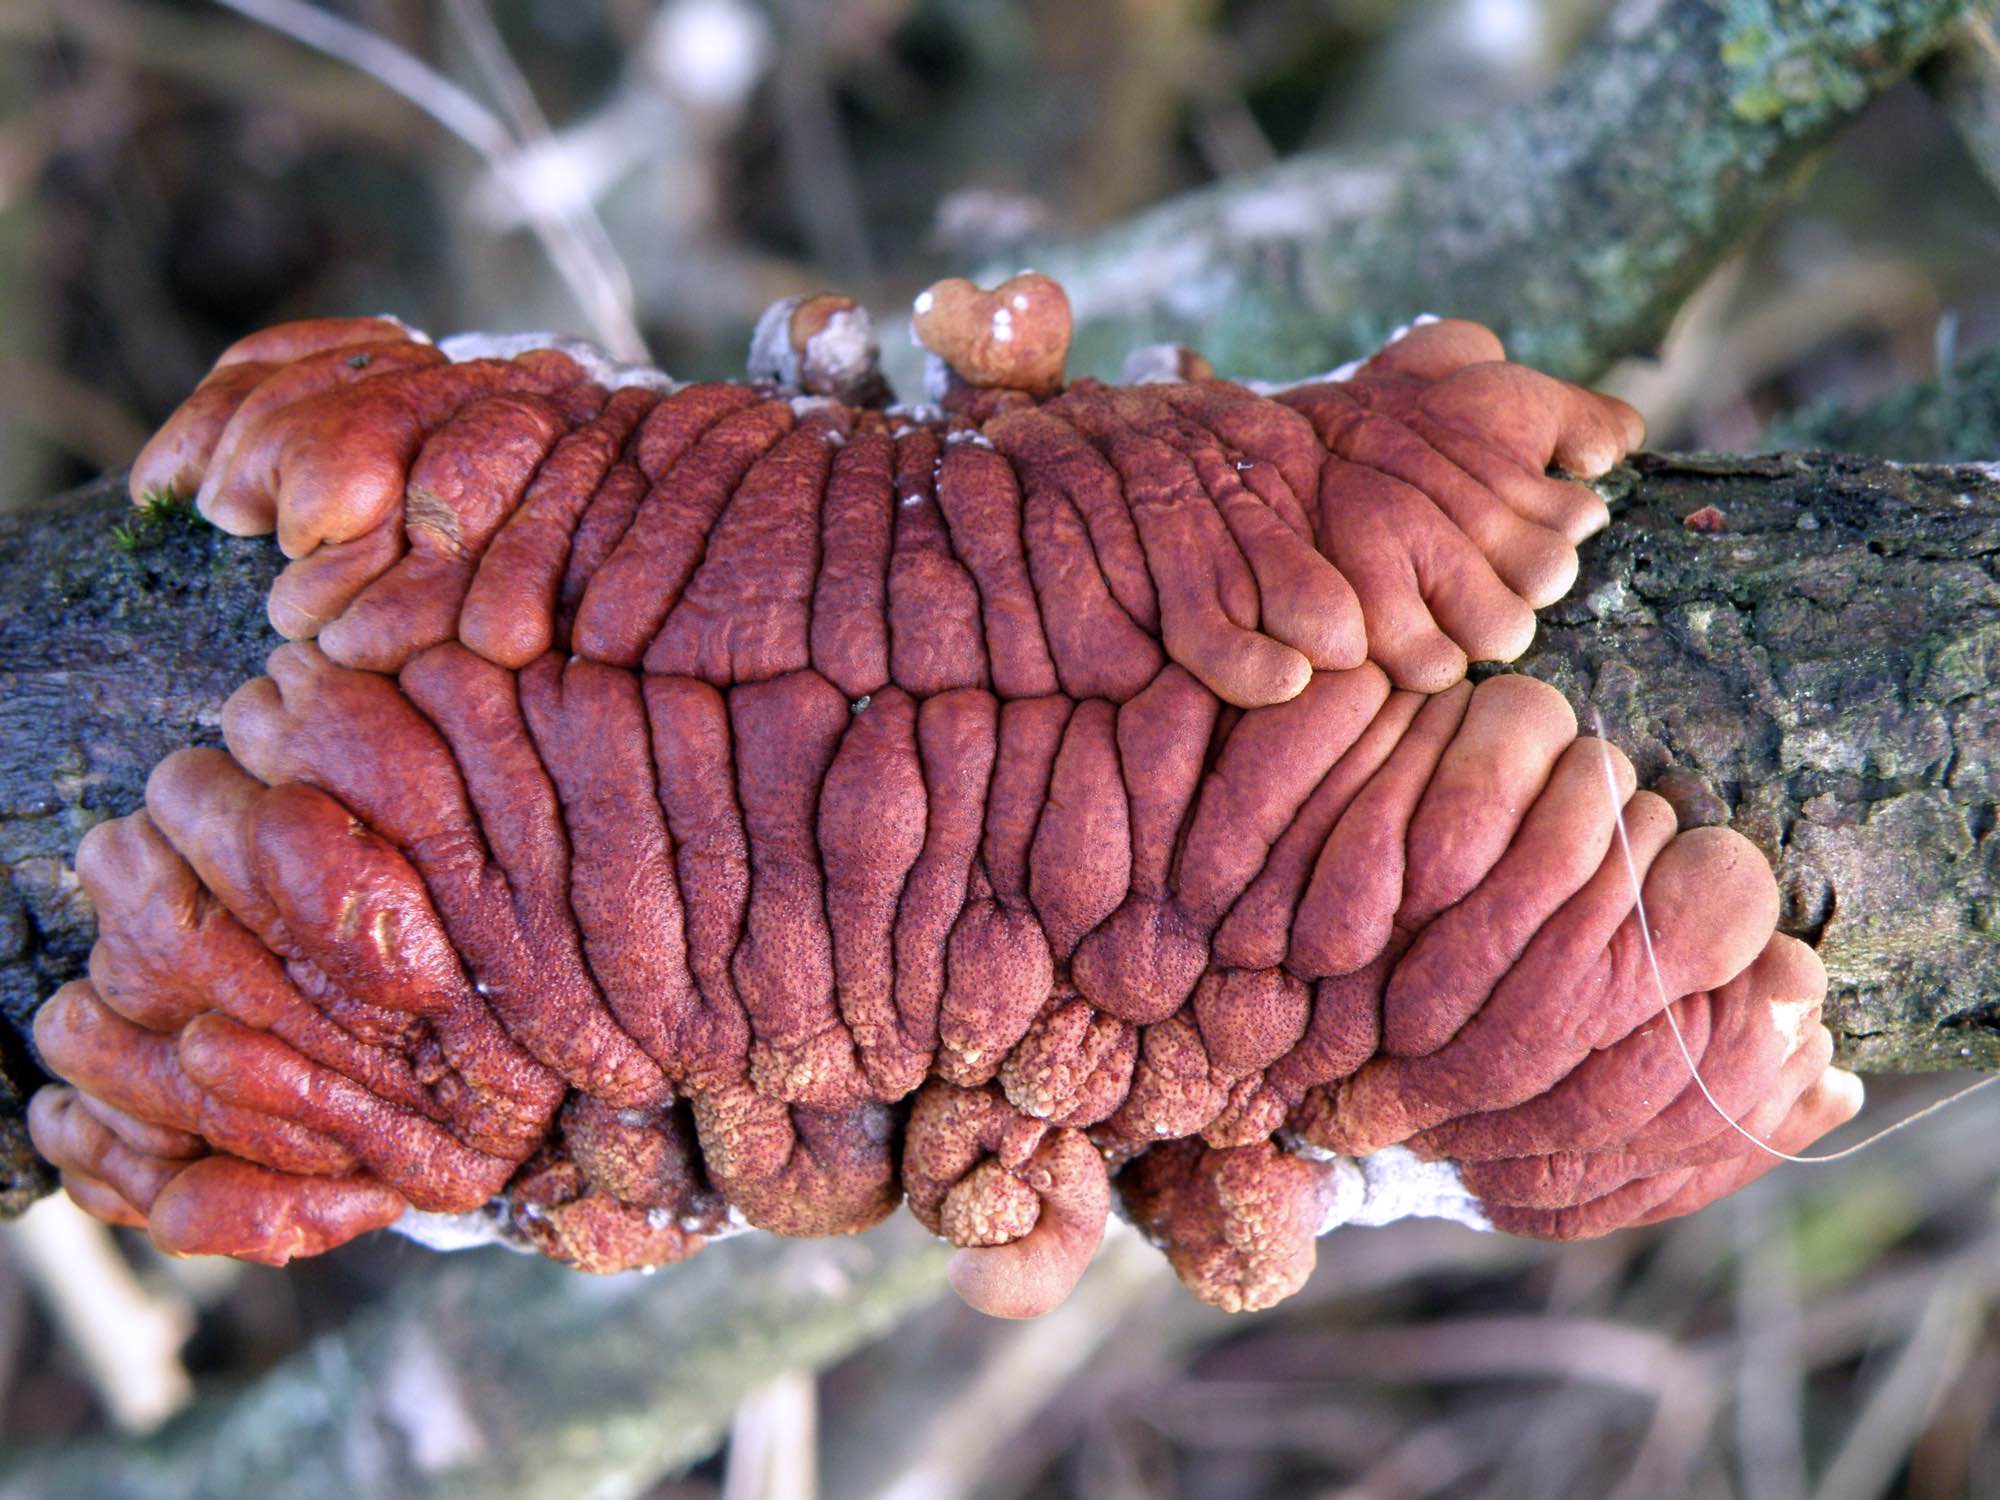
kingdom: Fungi
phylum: Ascomycota
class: Sordariomycetes
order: Hypocreales
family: Hypocreaceae
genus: Hypocreopsis
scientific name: Hypocreopsis lichenoides
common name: pilfinger
